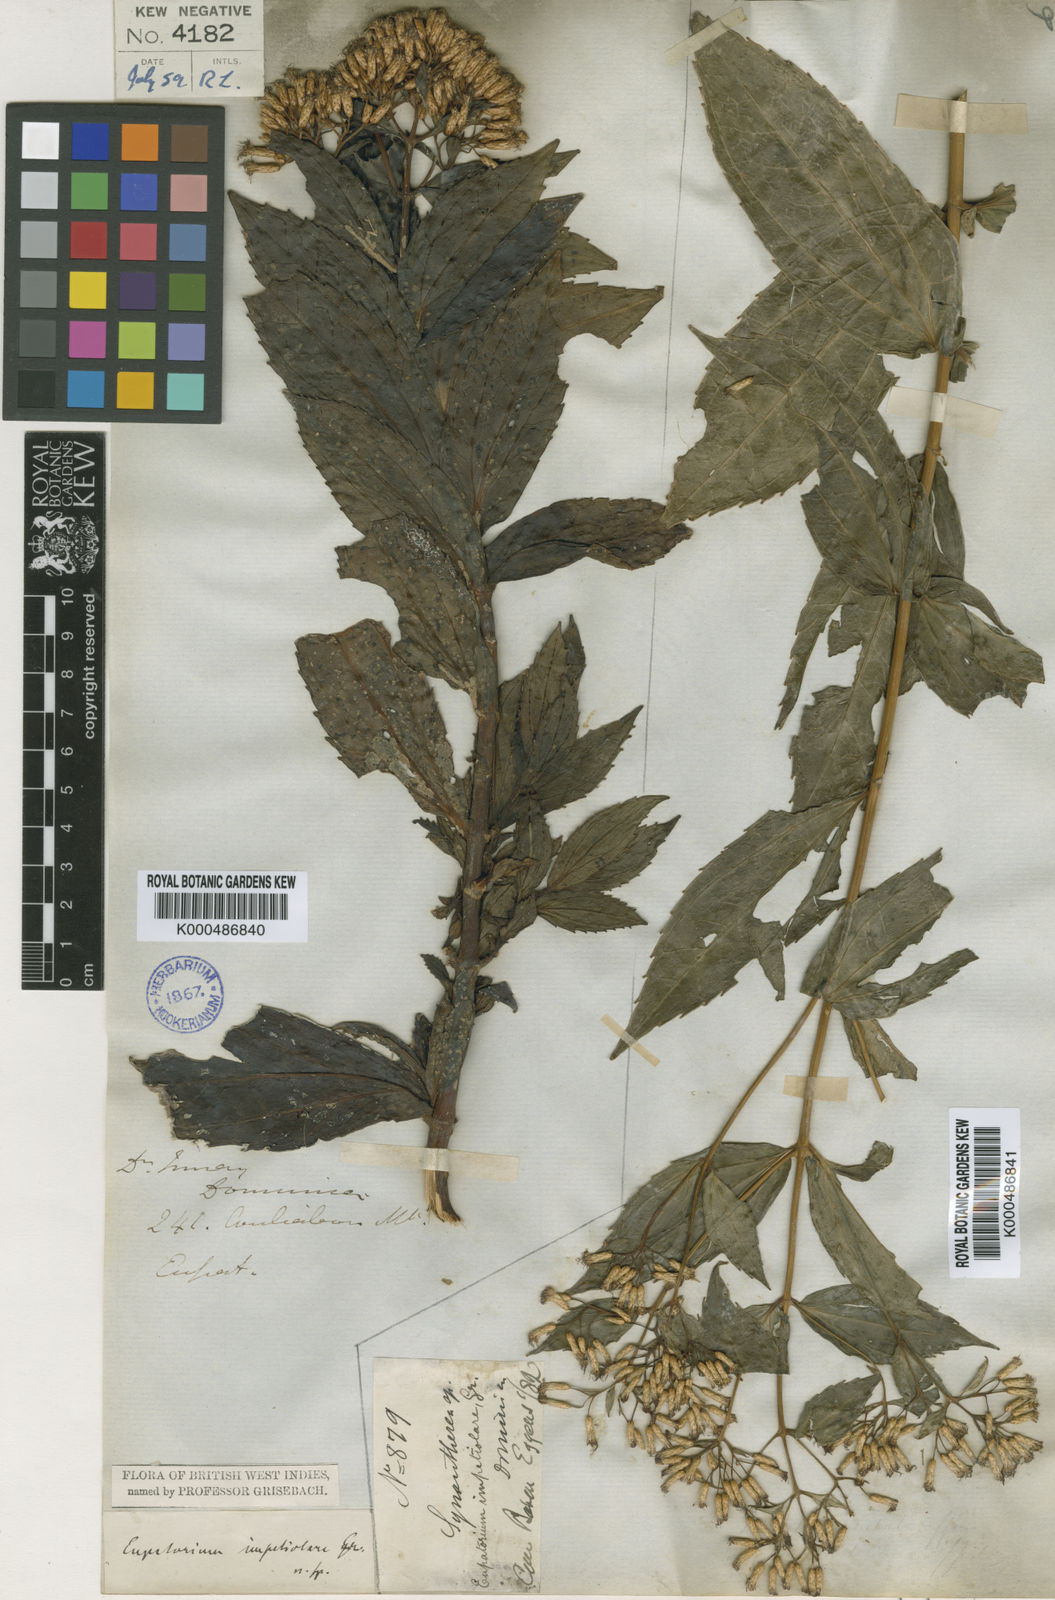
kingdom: Plantae
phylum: Tracheophyta
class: Magnoliopsida
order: Asterales
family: Asteraceae
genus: Chromolaena
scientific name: Chromolaena impetiolaris
